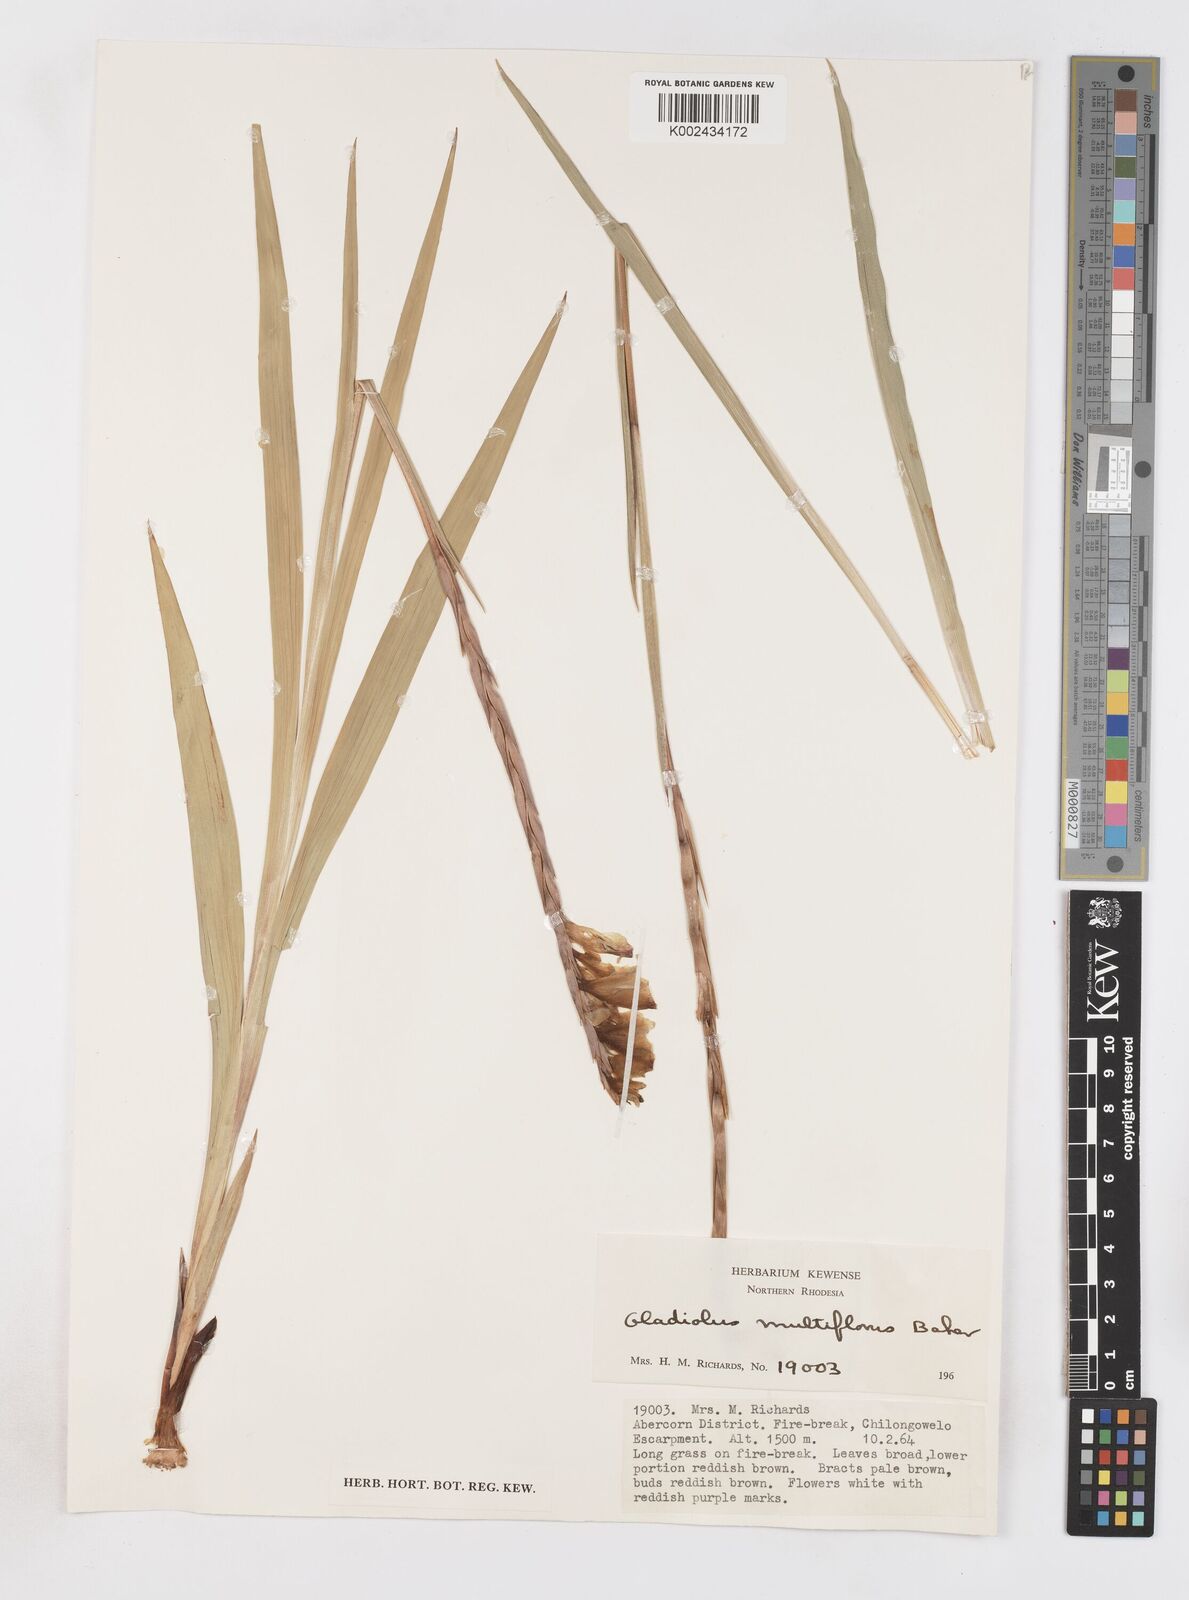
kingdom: Plantae
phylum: Tracheophyta
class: Liliopsida
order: Asparagales
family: Iridaceae
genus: Gladiolus
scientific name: Gladiolus gregarius
